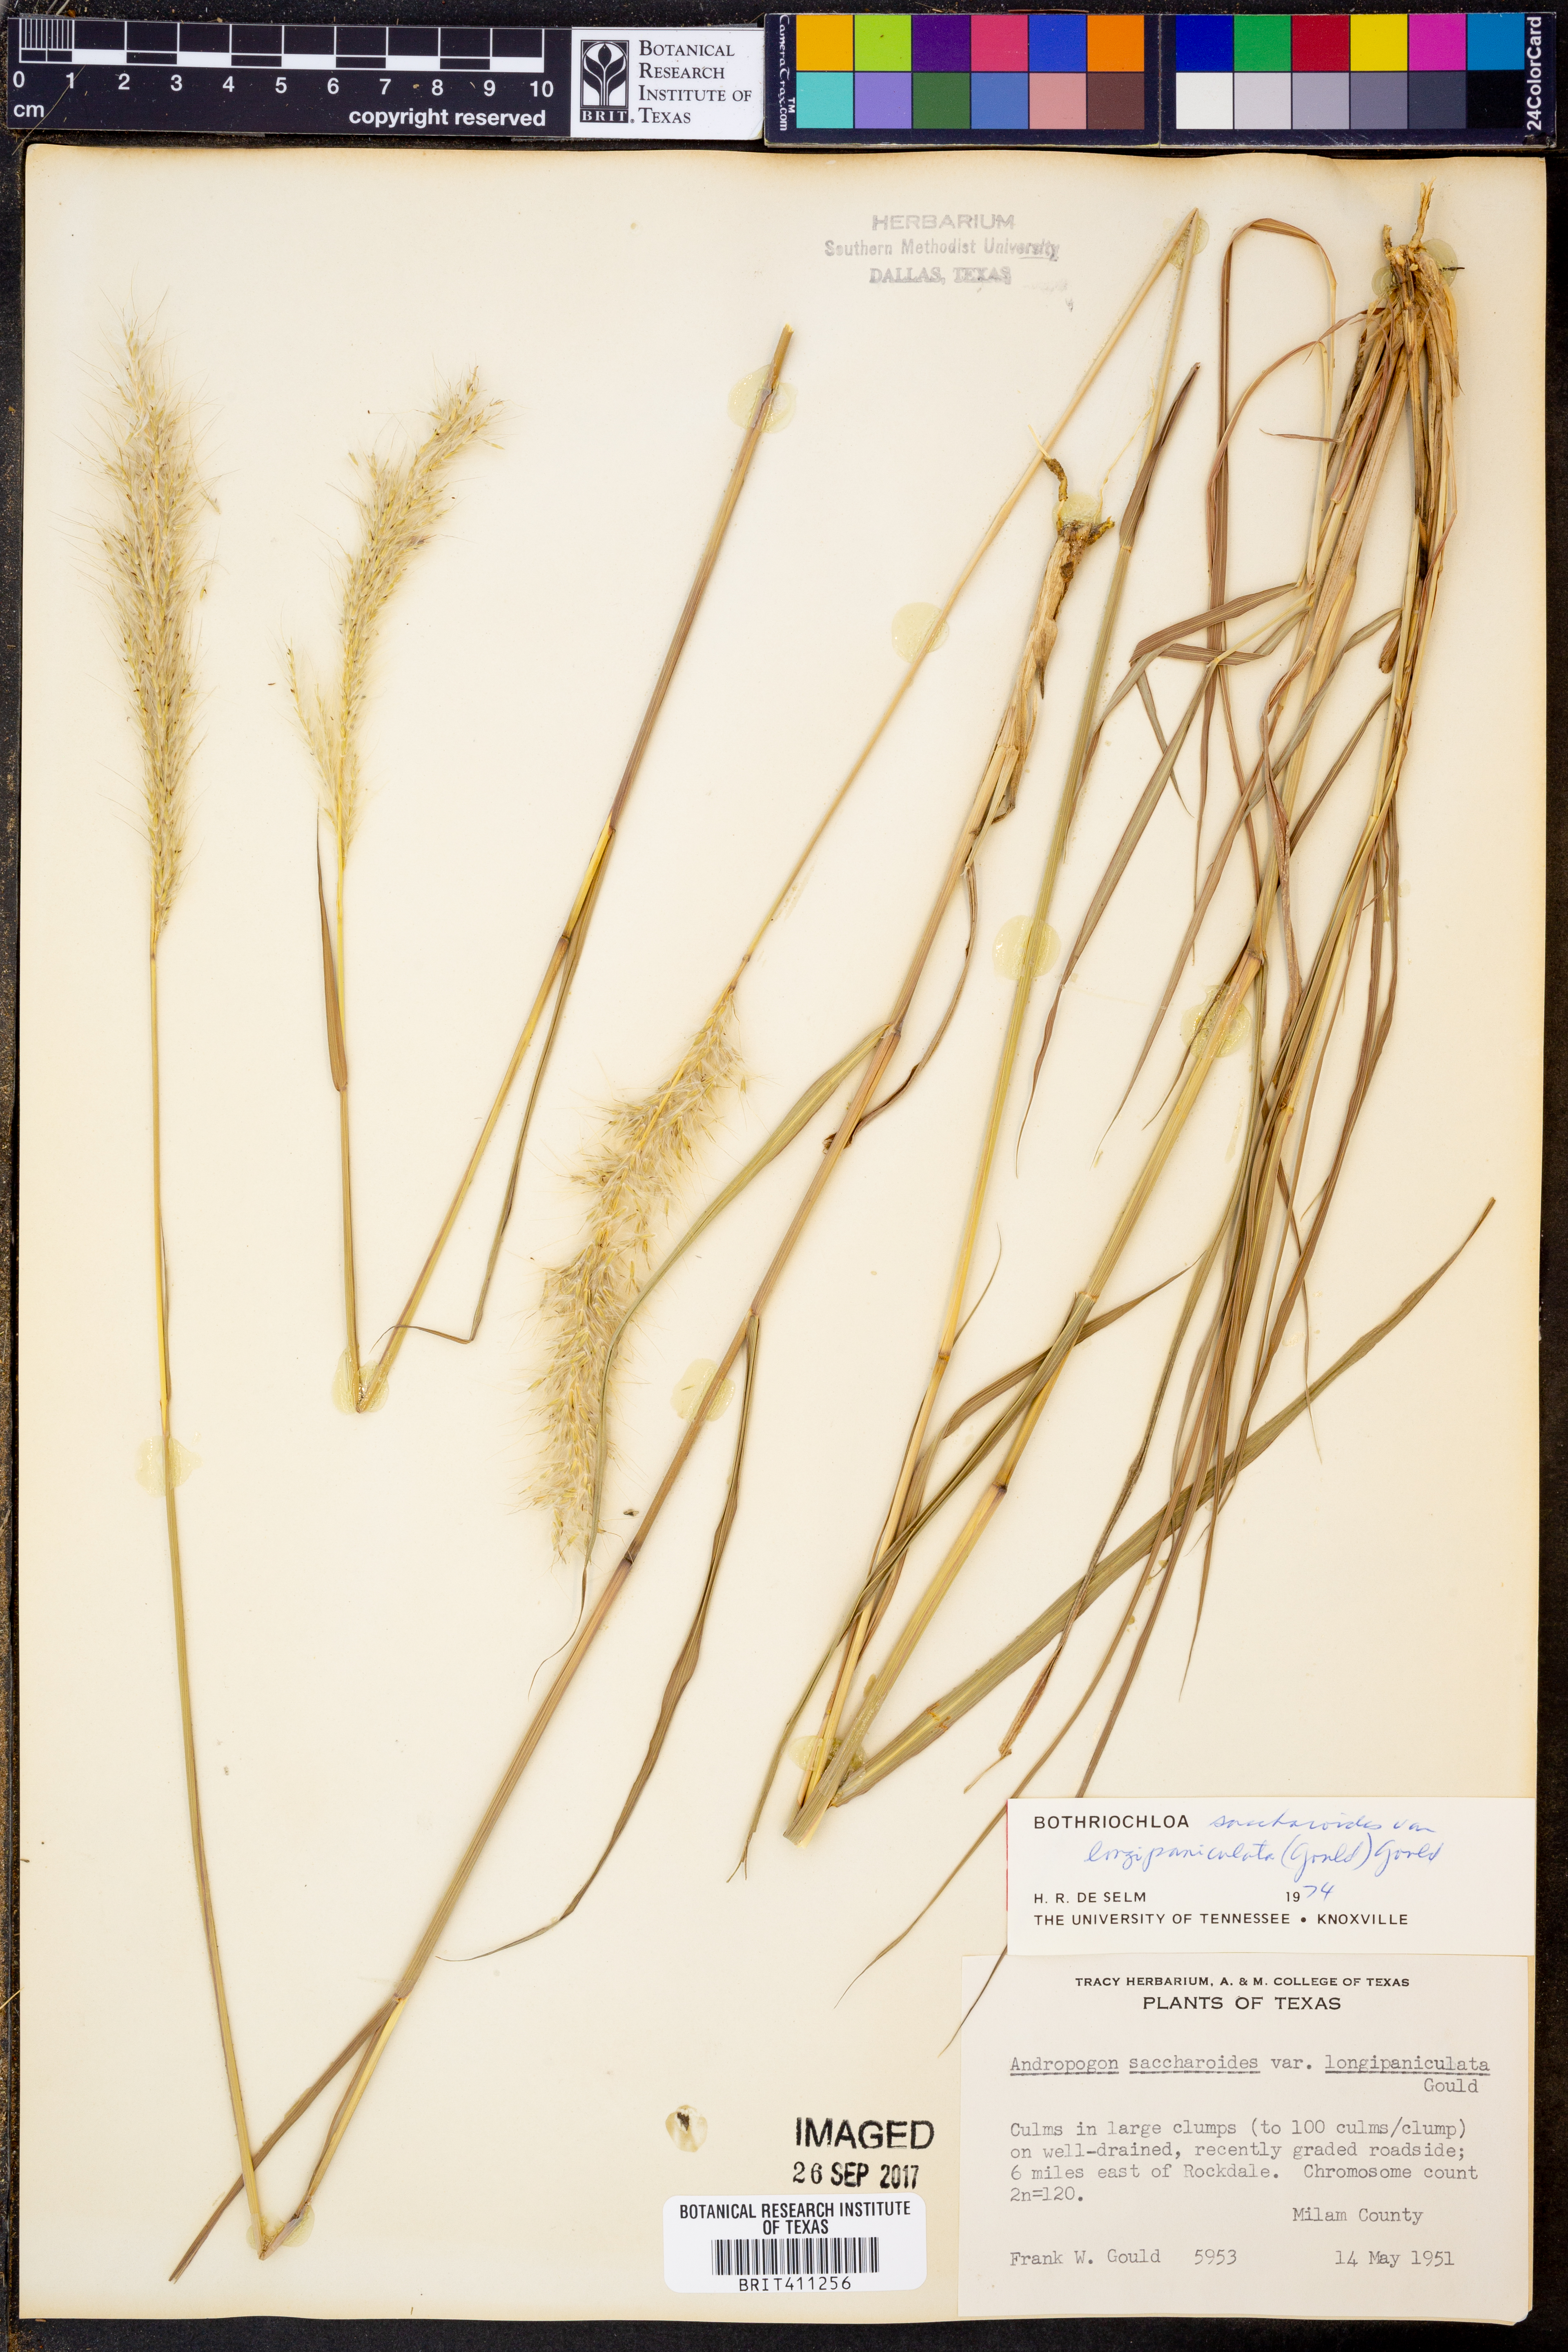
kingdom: Plantae
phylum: Tracheophyta
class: Liliopsida
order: Poales
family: Poaceae
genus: Bothriochloa
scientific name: Bothriochloa longipaniculata
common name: Longspike silver bluestem
